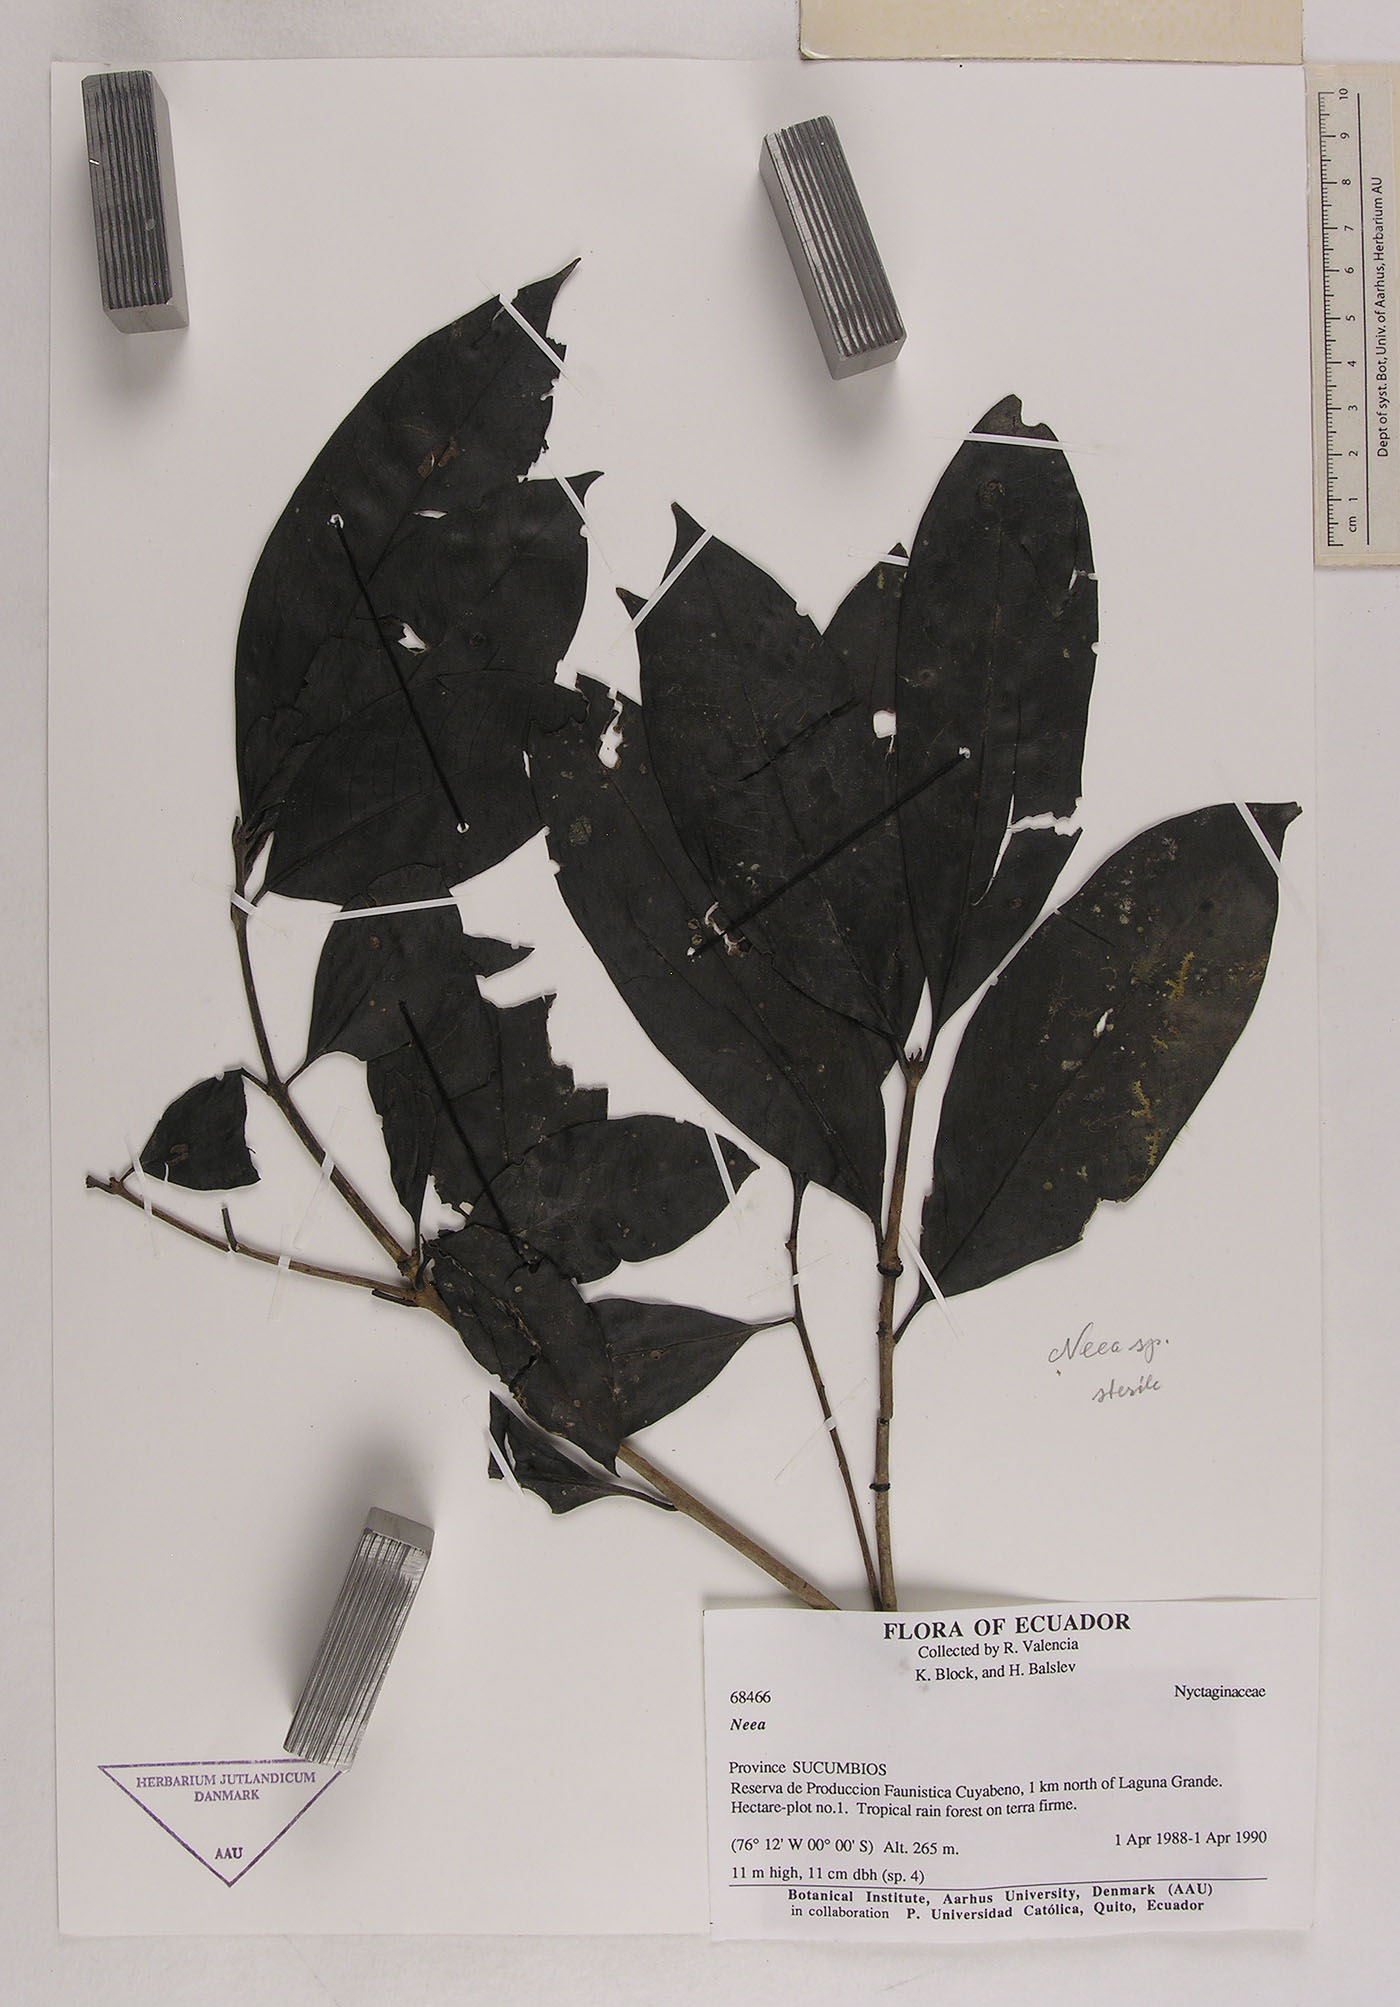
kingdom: Plantae
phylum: Tracheophyta
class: Magnoliopsida
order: Caryophyllales
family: Nyctaginaceae
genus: Neea
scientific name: Neea
